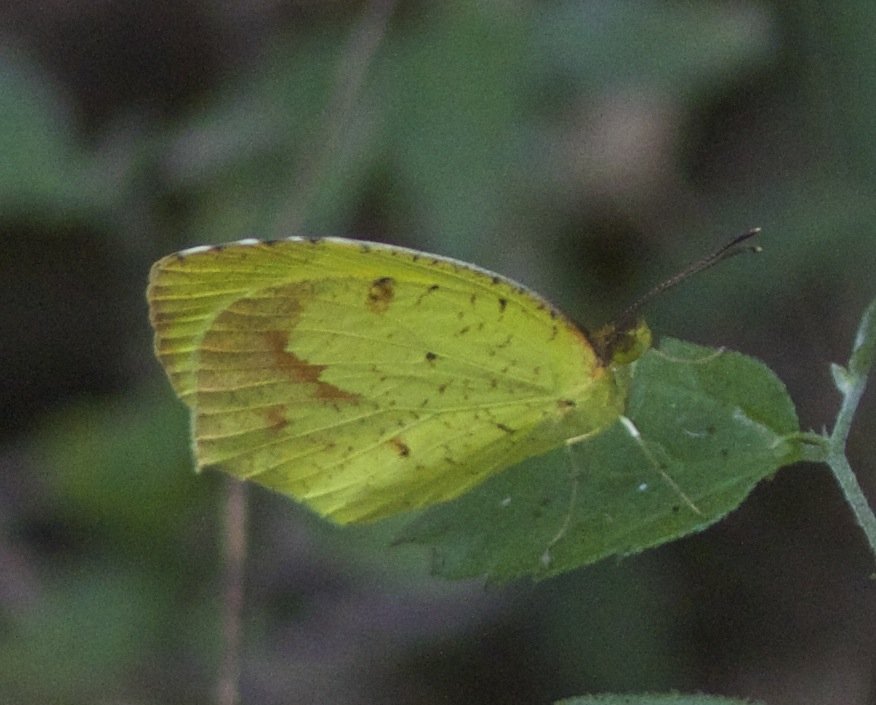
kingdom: Animalia
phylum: Arthropoda
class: Insecta
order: Lepidoptera
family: Pieridae
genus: Eurema
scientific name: Eurema boisduvaliana
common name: Boisduval's Yellow
